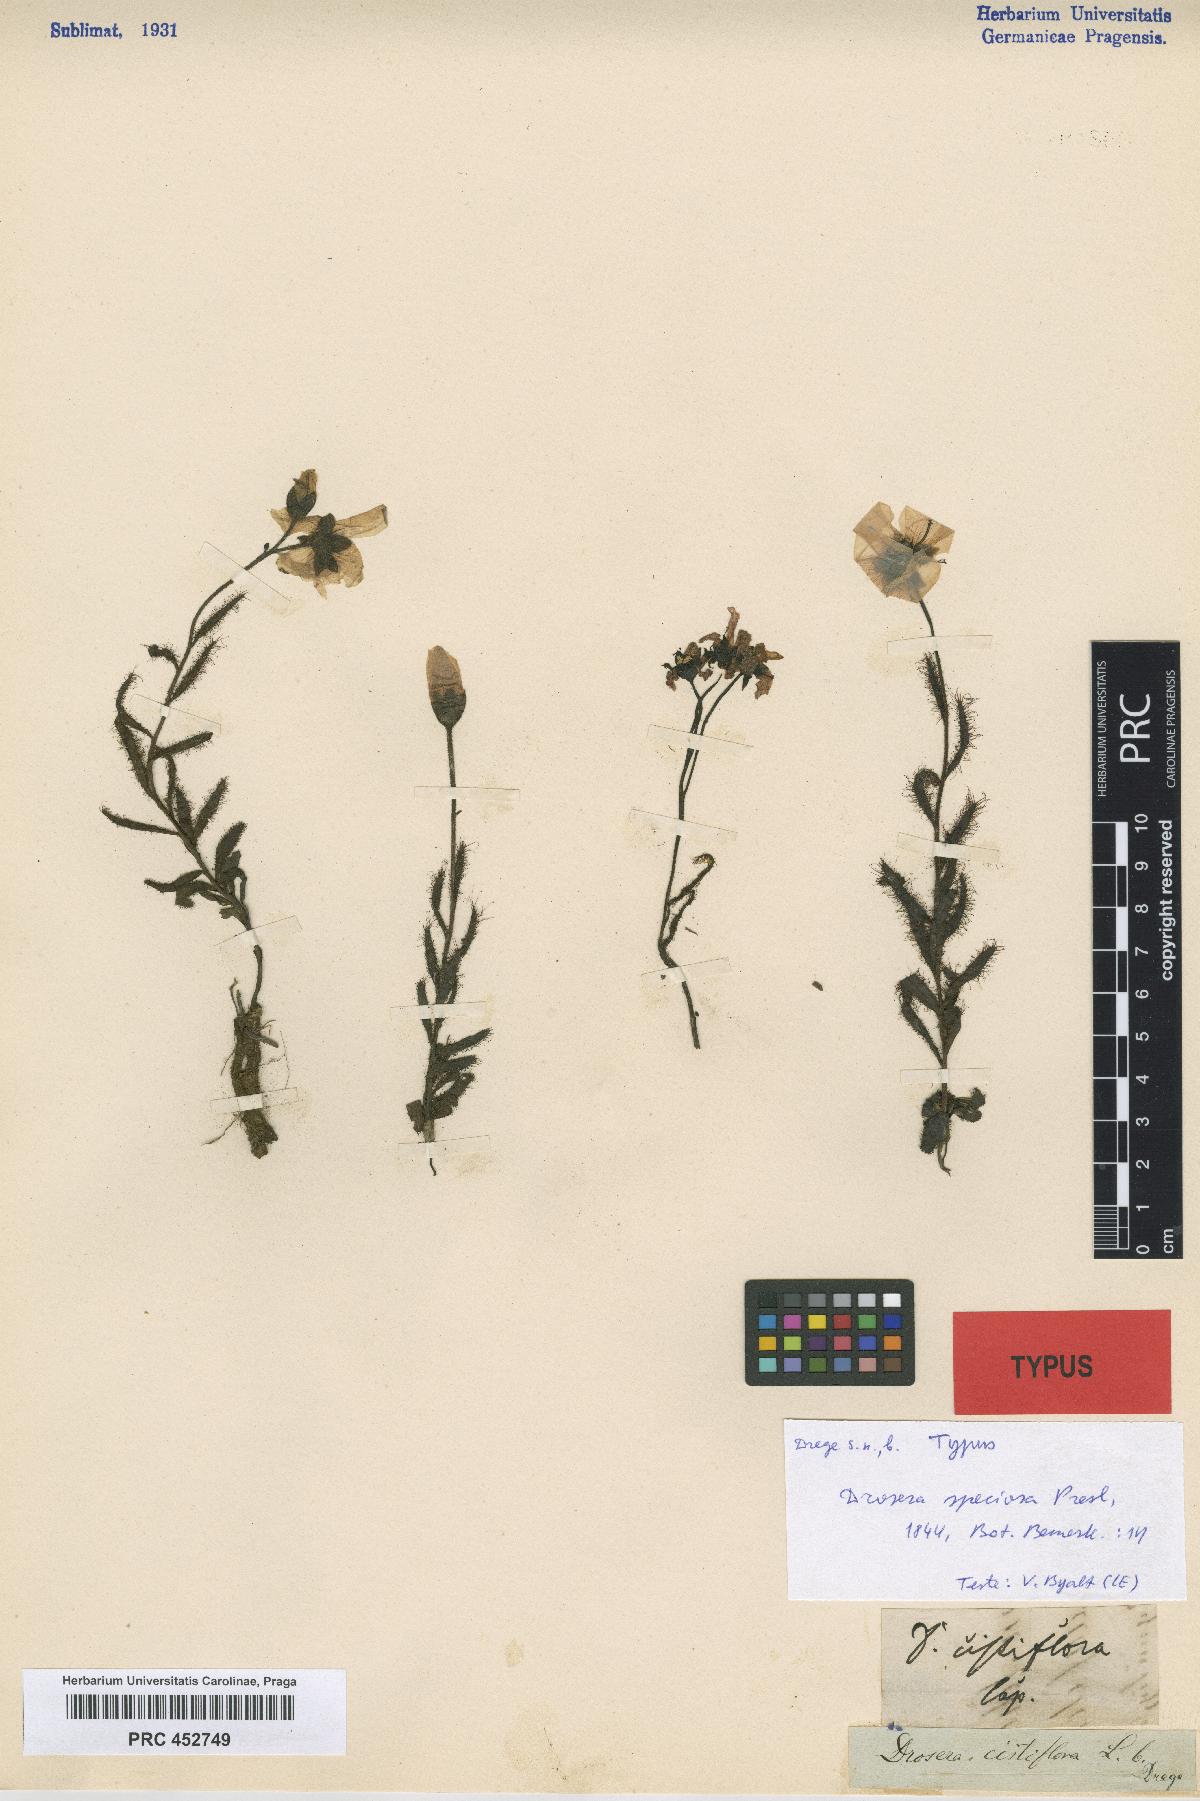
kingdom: Plantae
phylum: Tracheophyta
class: Magnoliopsida
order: Caryophyllales
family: Droseraceae
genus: Drosera
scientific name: Drosera cistiflora
